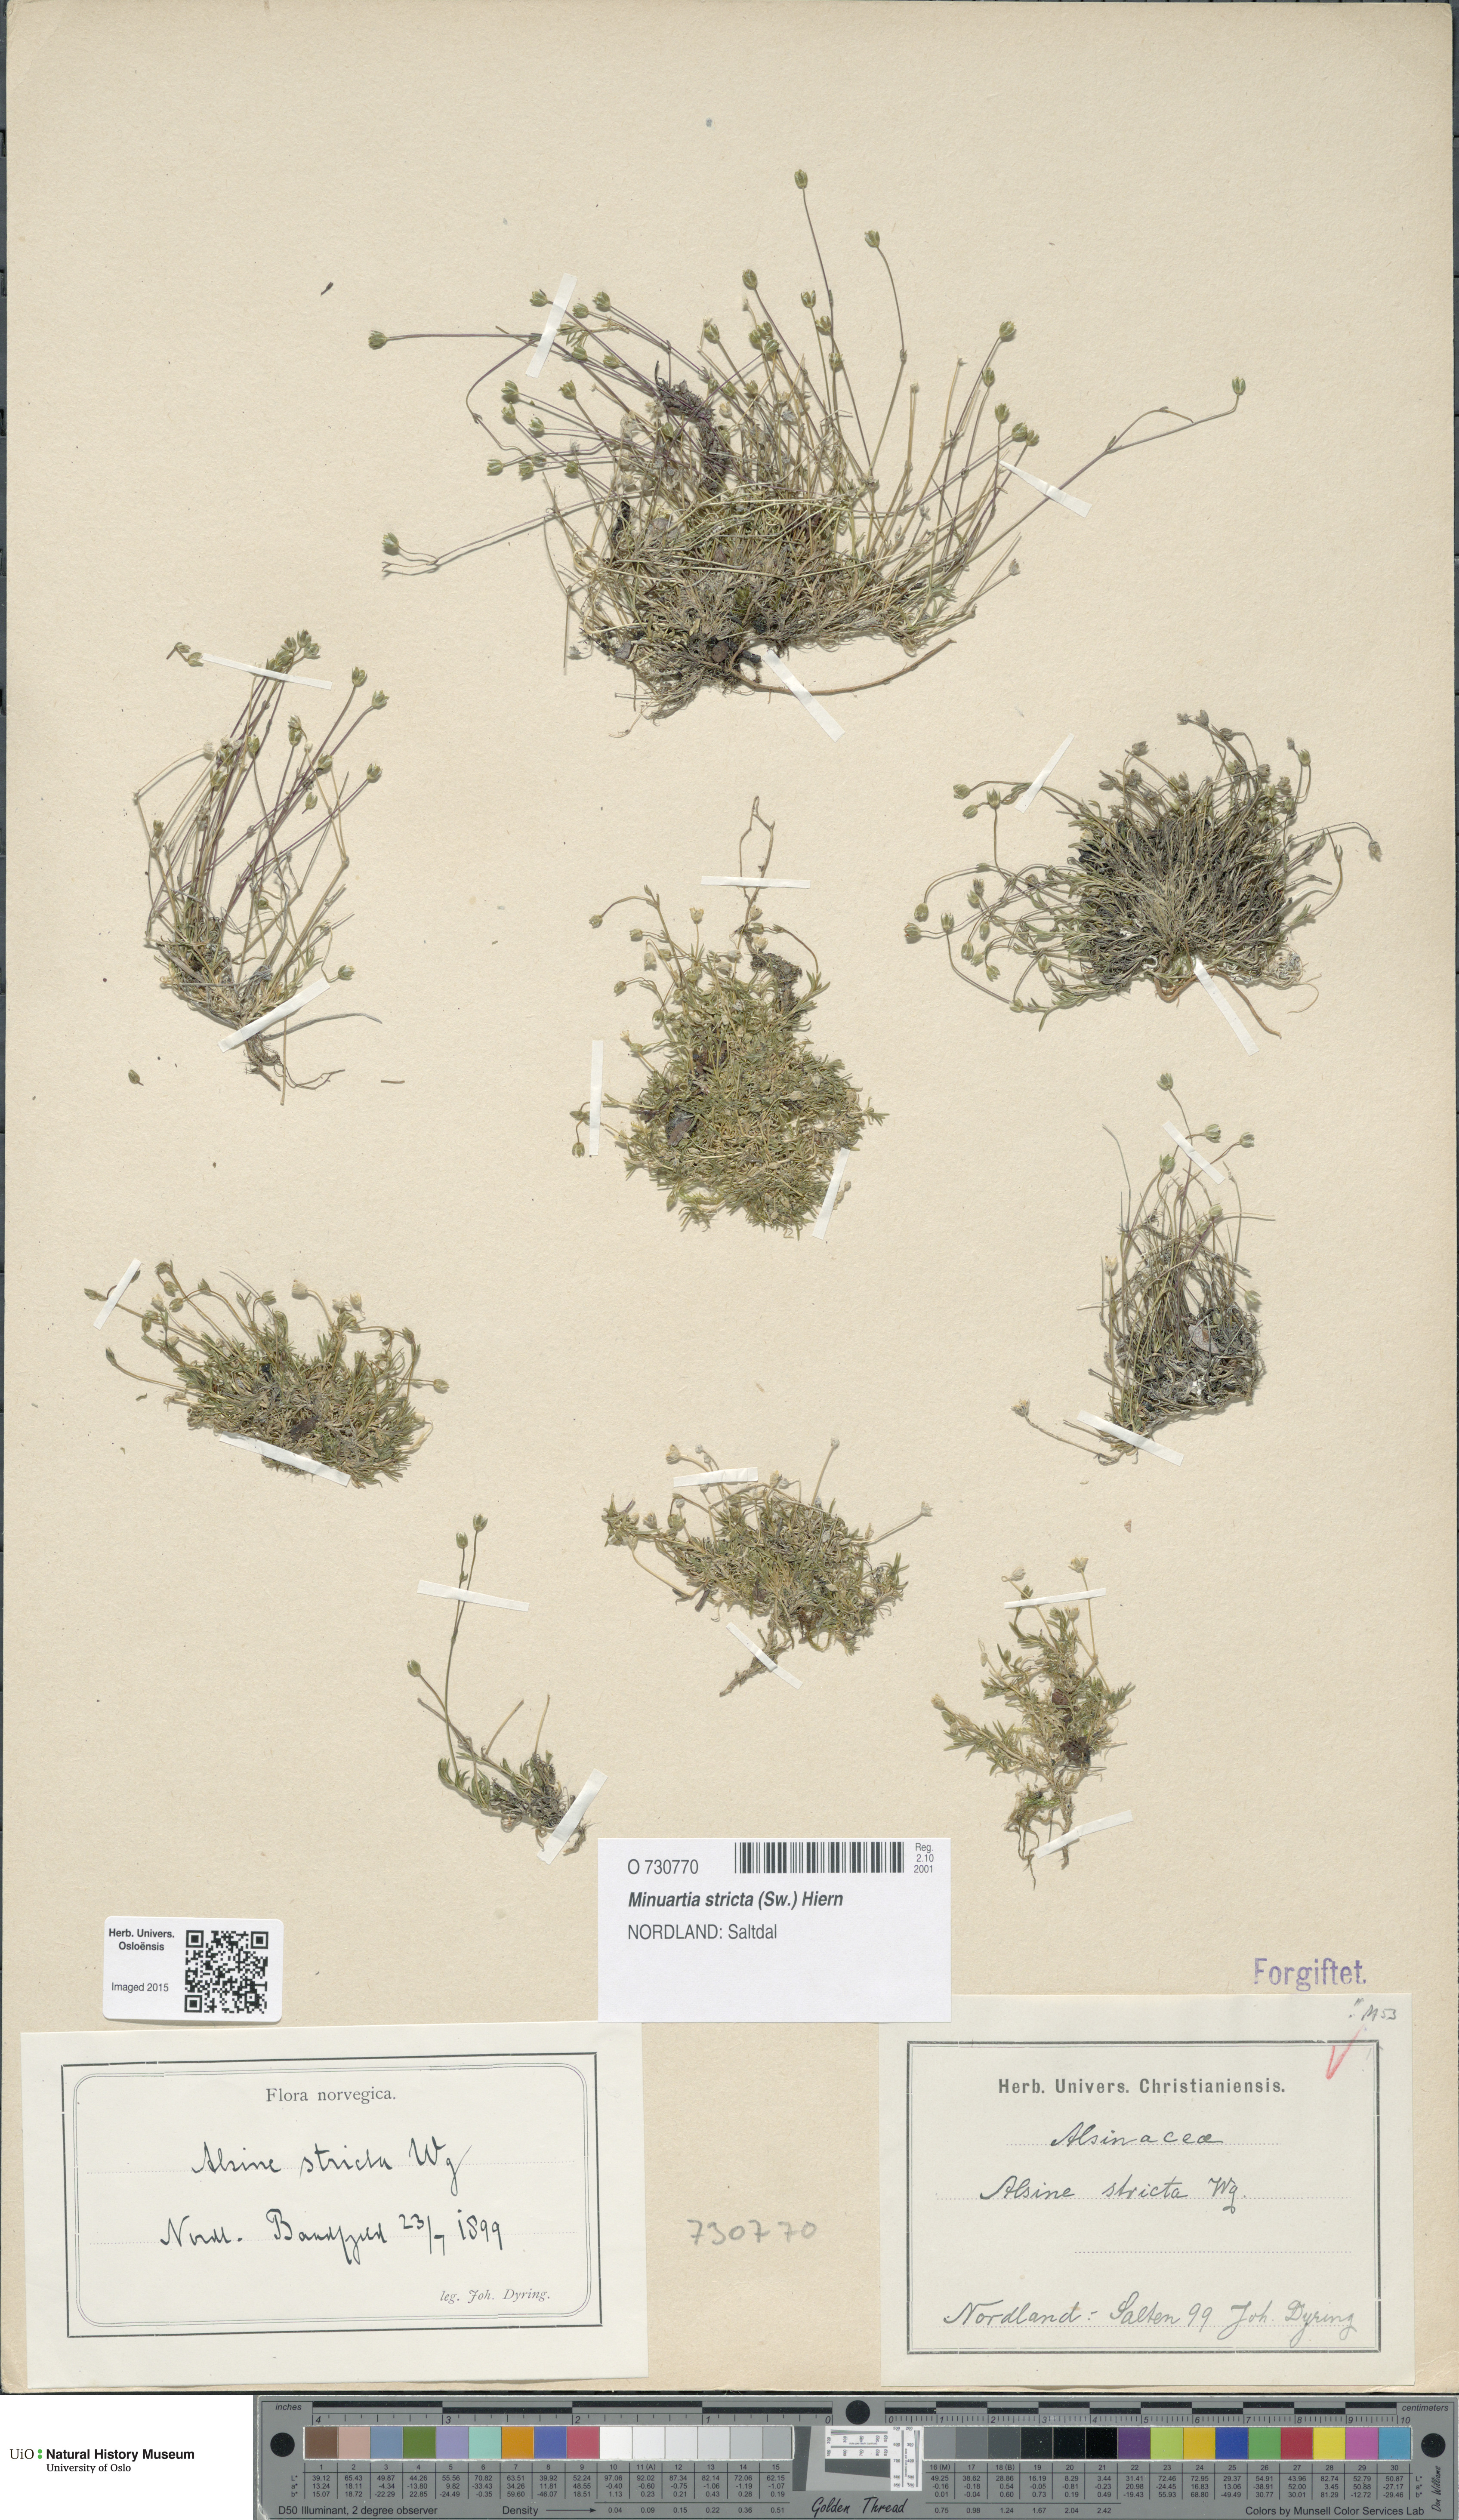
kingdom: Plantae
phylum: Tracheophyta
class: Magnoliopsida
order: Caryophyllales
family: Caryophyllaceae
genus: Sabulina
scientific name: Sabulina stricta
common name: Bog sandwort
